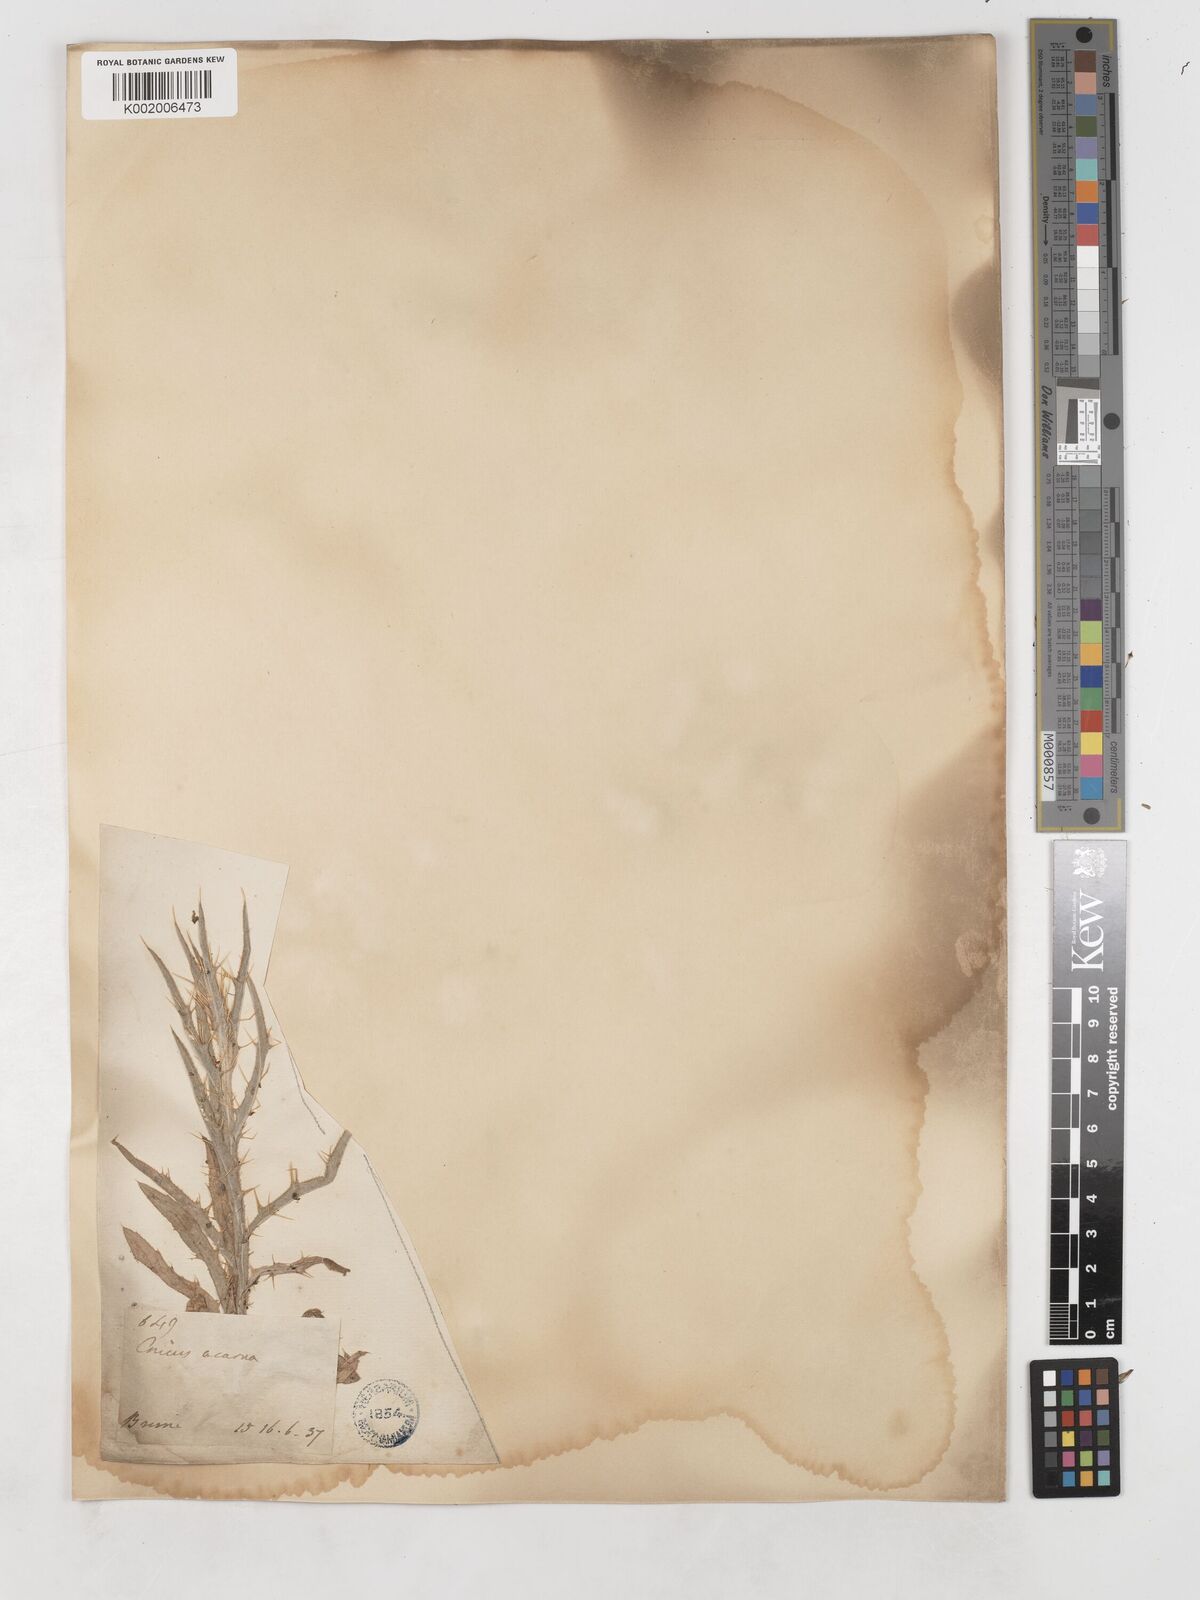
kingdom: Plantae
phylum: Tracheophyta
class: Magnoliopsida
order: Asterales
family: Asteraceae
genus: Picnomon
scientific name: Picnomon acarna
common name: Soldier thistle
